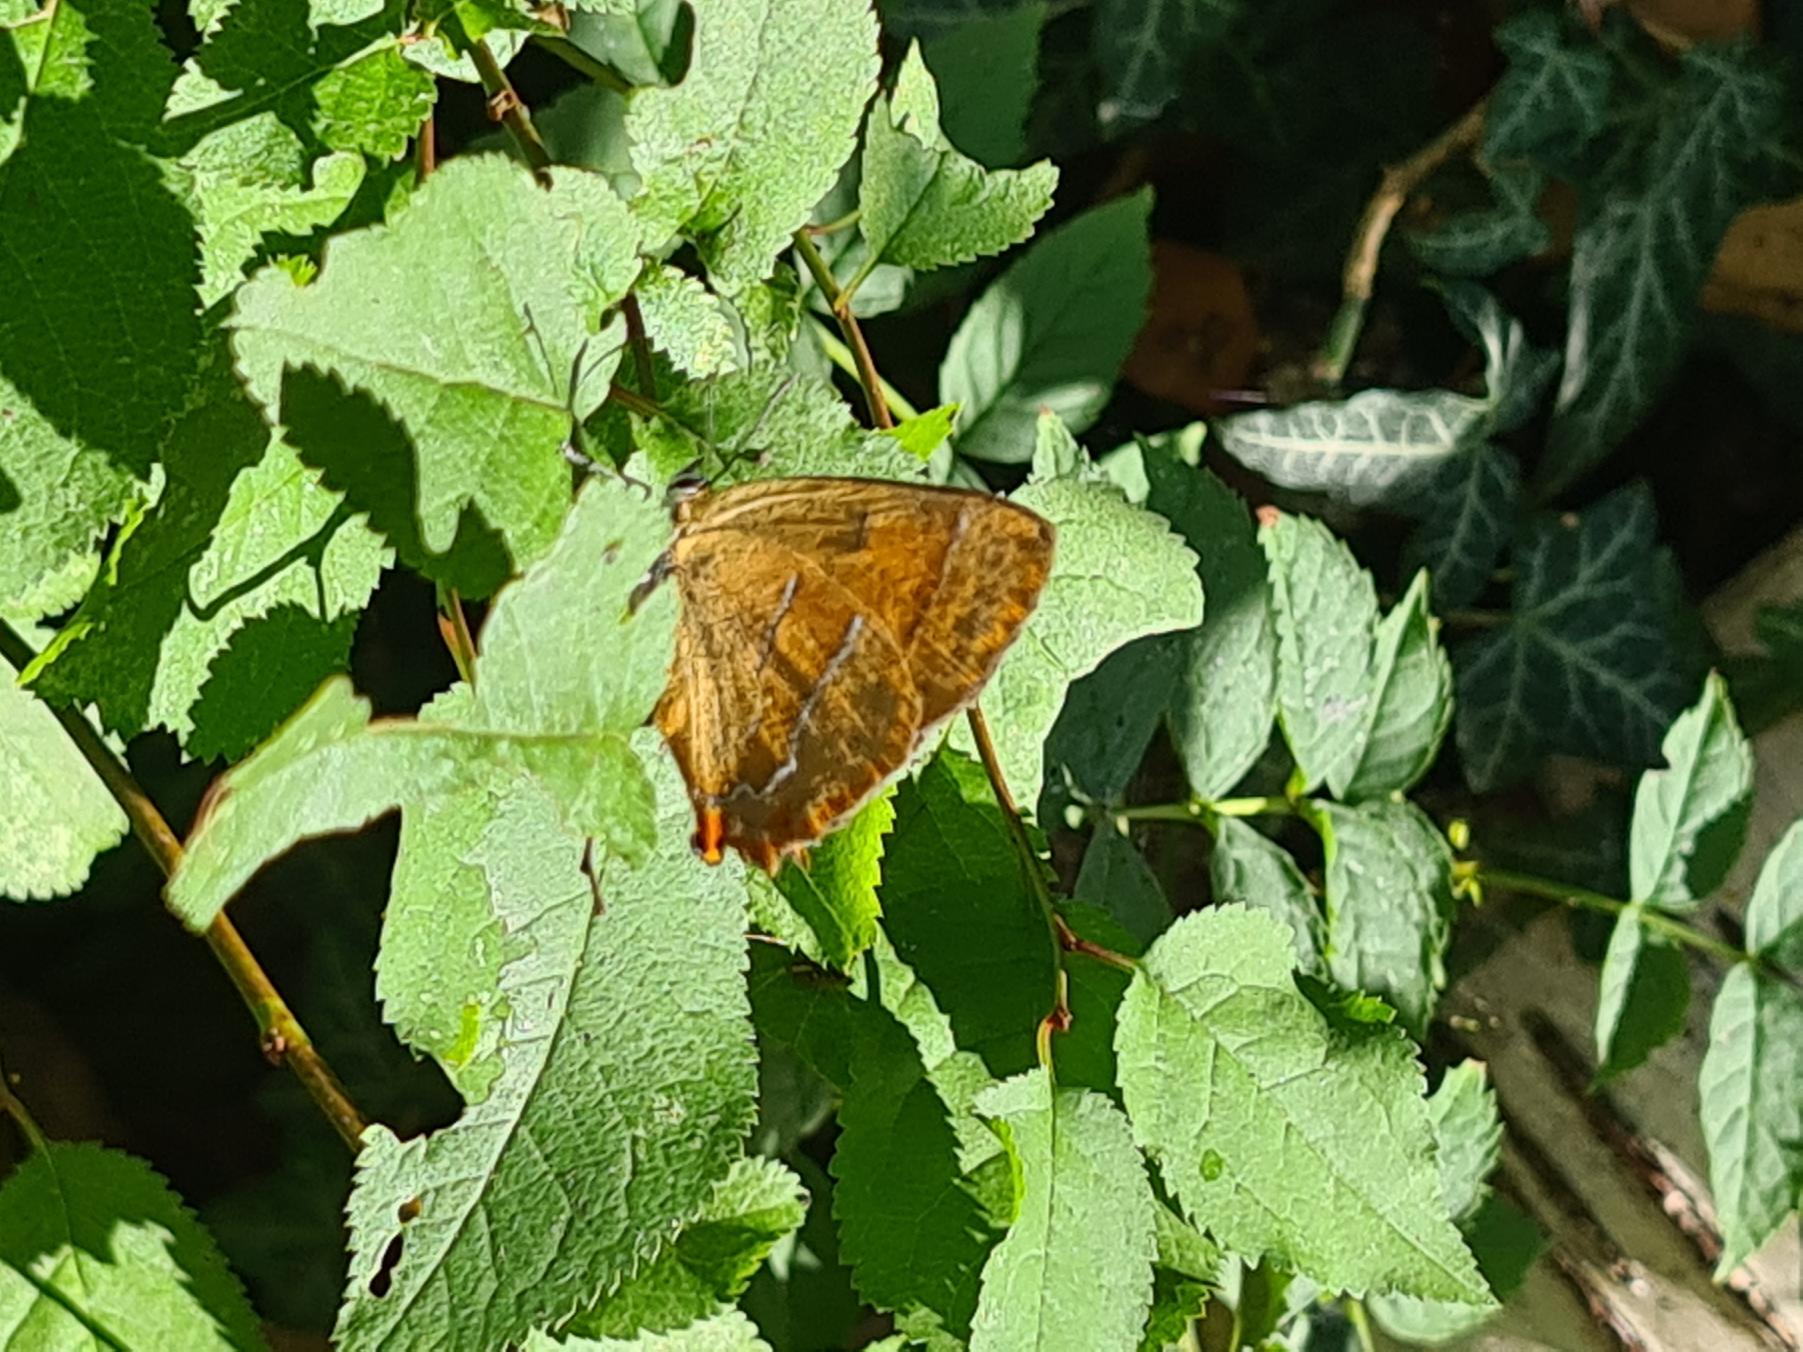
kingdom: Animalia
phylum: Arthropoda
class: Insecta
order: Lepidoptera
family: Lycaenidae
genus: Thecla
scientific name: Thecla betulae
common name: Guldhale
